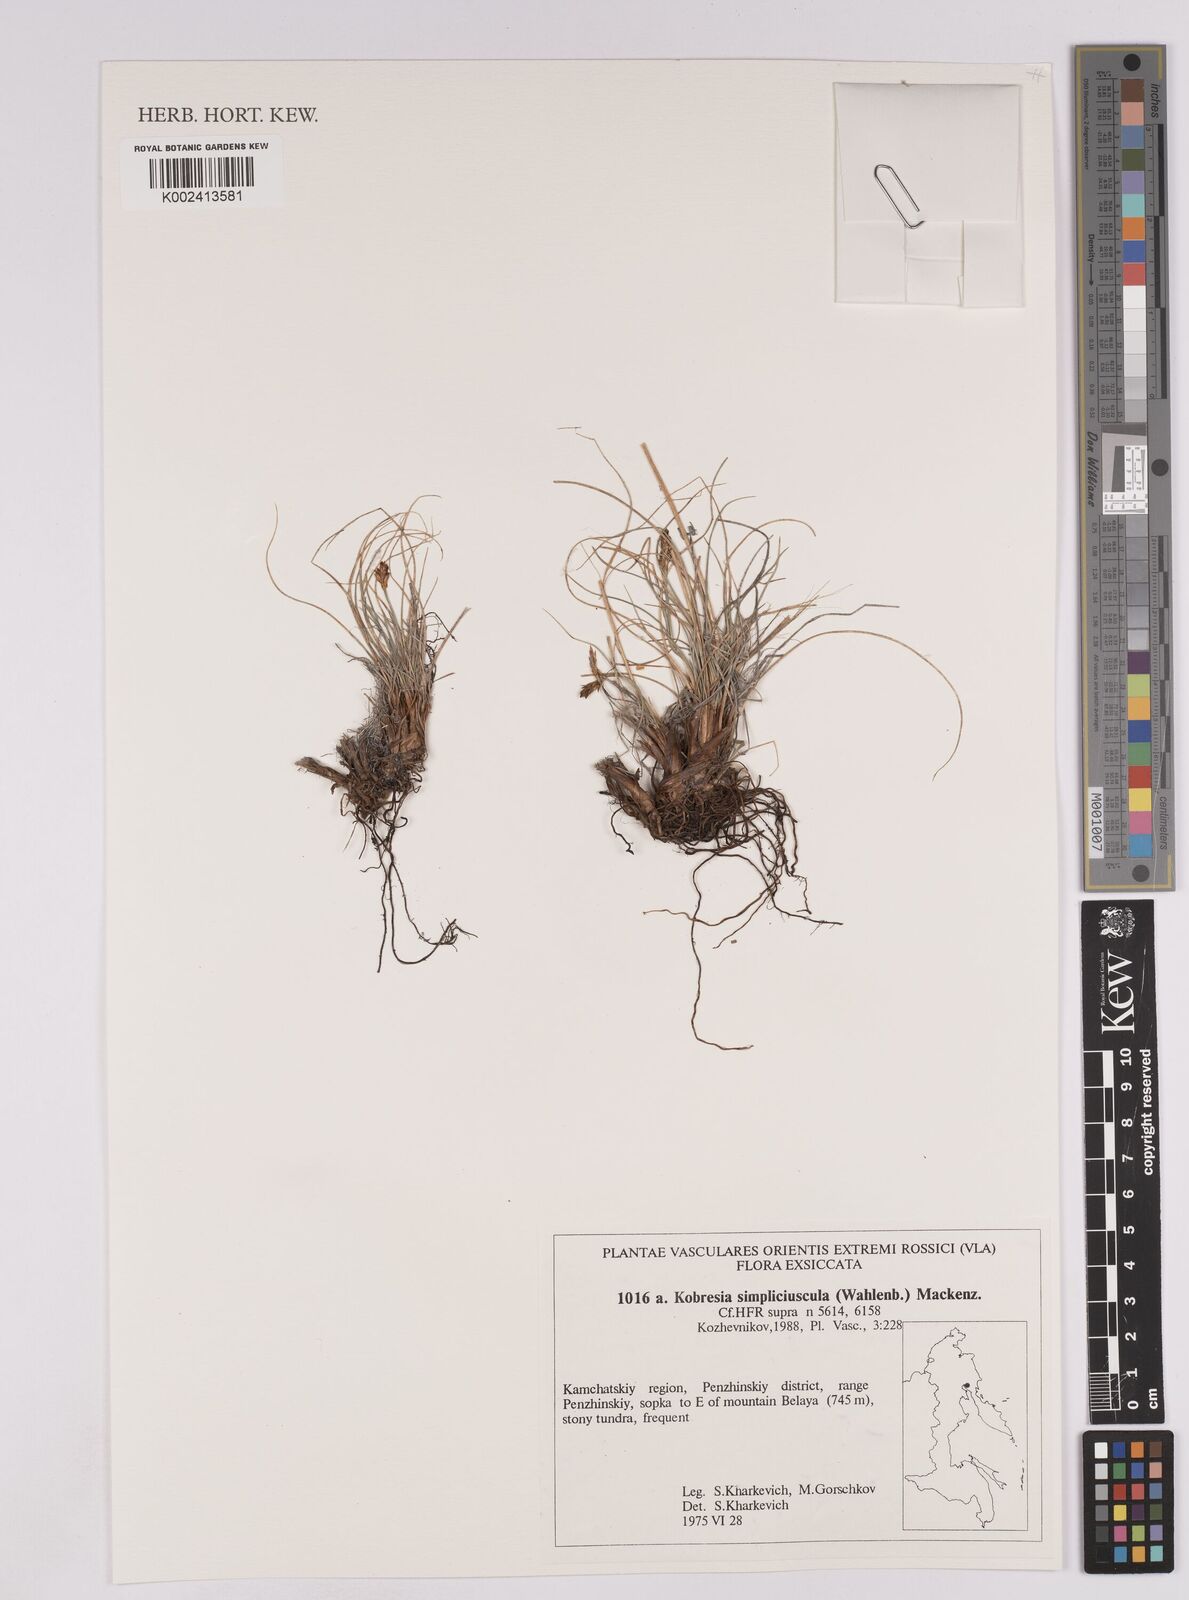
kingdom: Plantae
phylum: Tracheophyta
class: Liliopsida
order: Poales
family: Cyperaceae
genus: Carex
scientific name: Carex simpliciuscula
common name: Simple bog sedge
